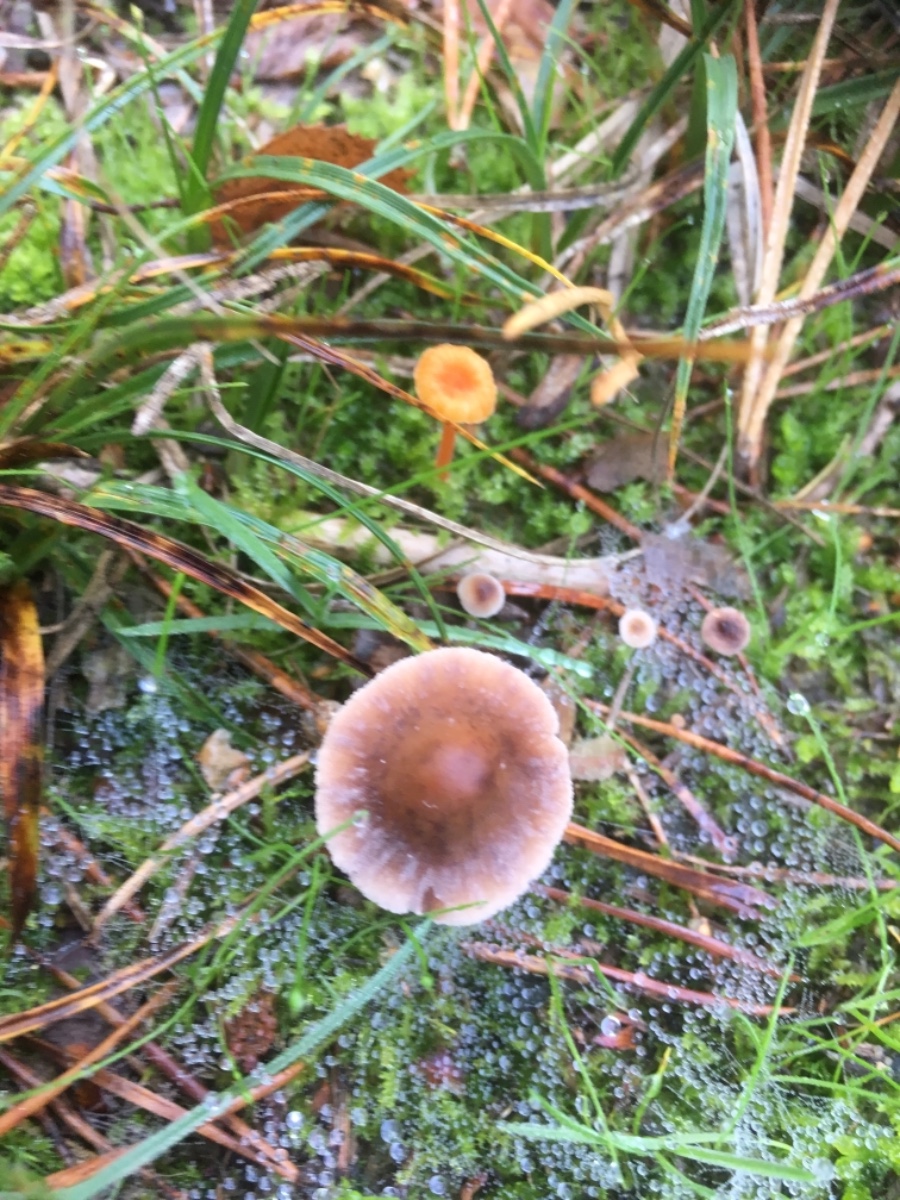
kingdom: Fungi
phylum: Basidiomycota
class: Agaricomycetes
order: Agaricales
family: Marasmiaceae
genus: Baeospora
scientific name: Baeospora myosura
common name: koglebruskhat
